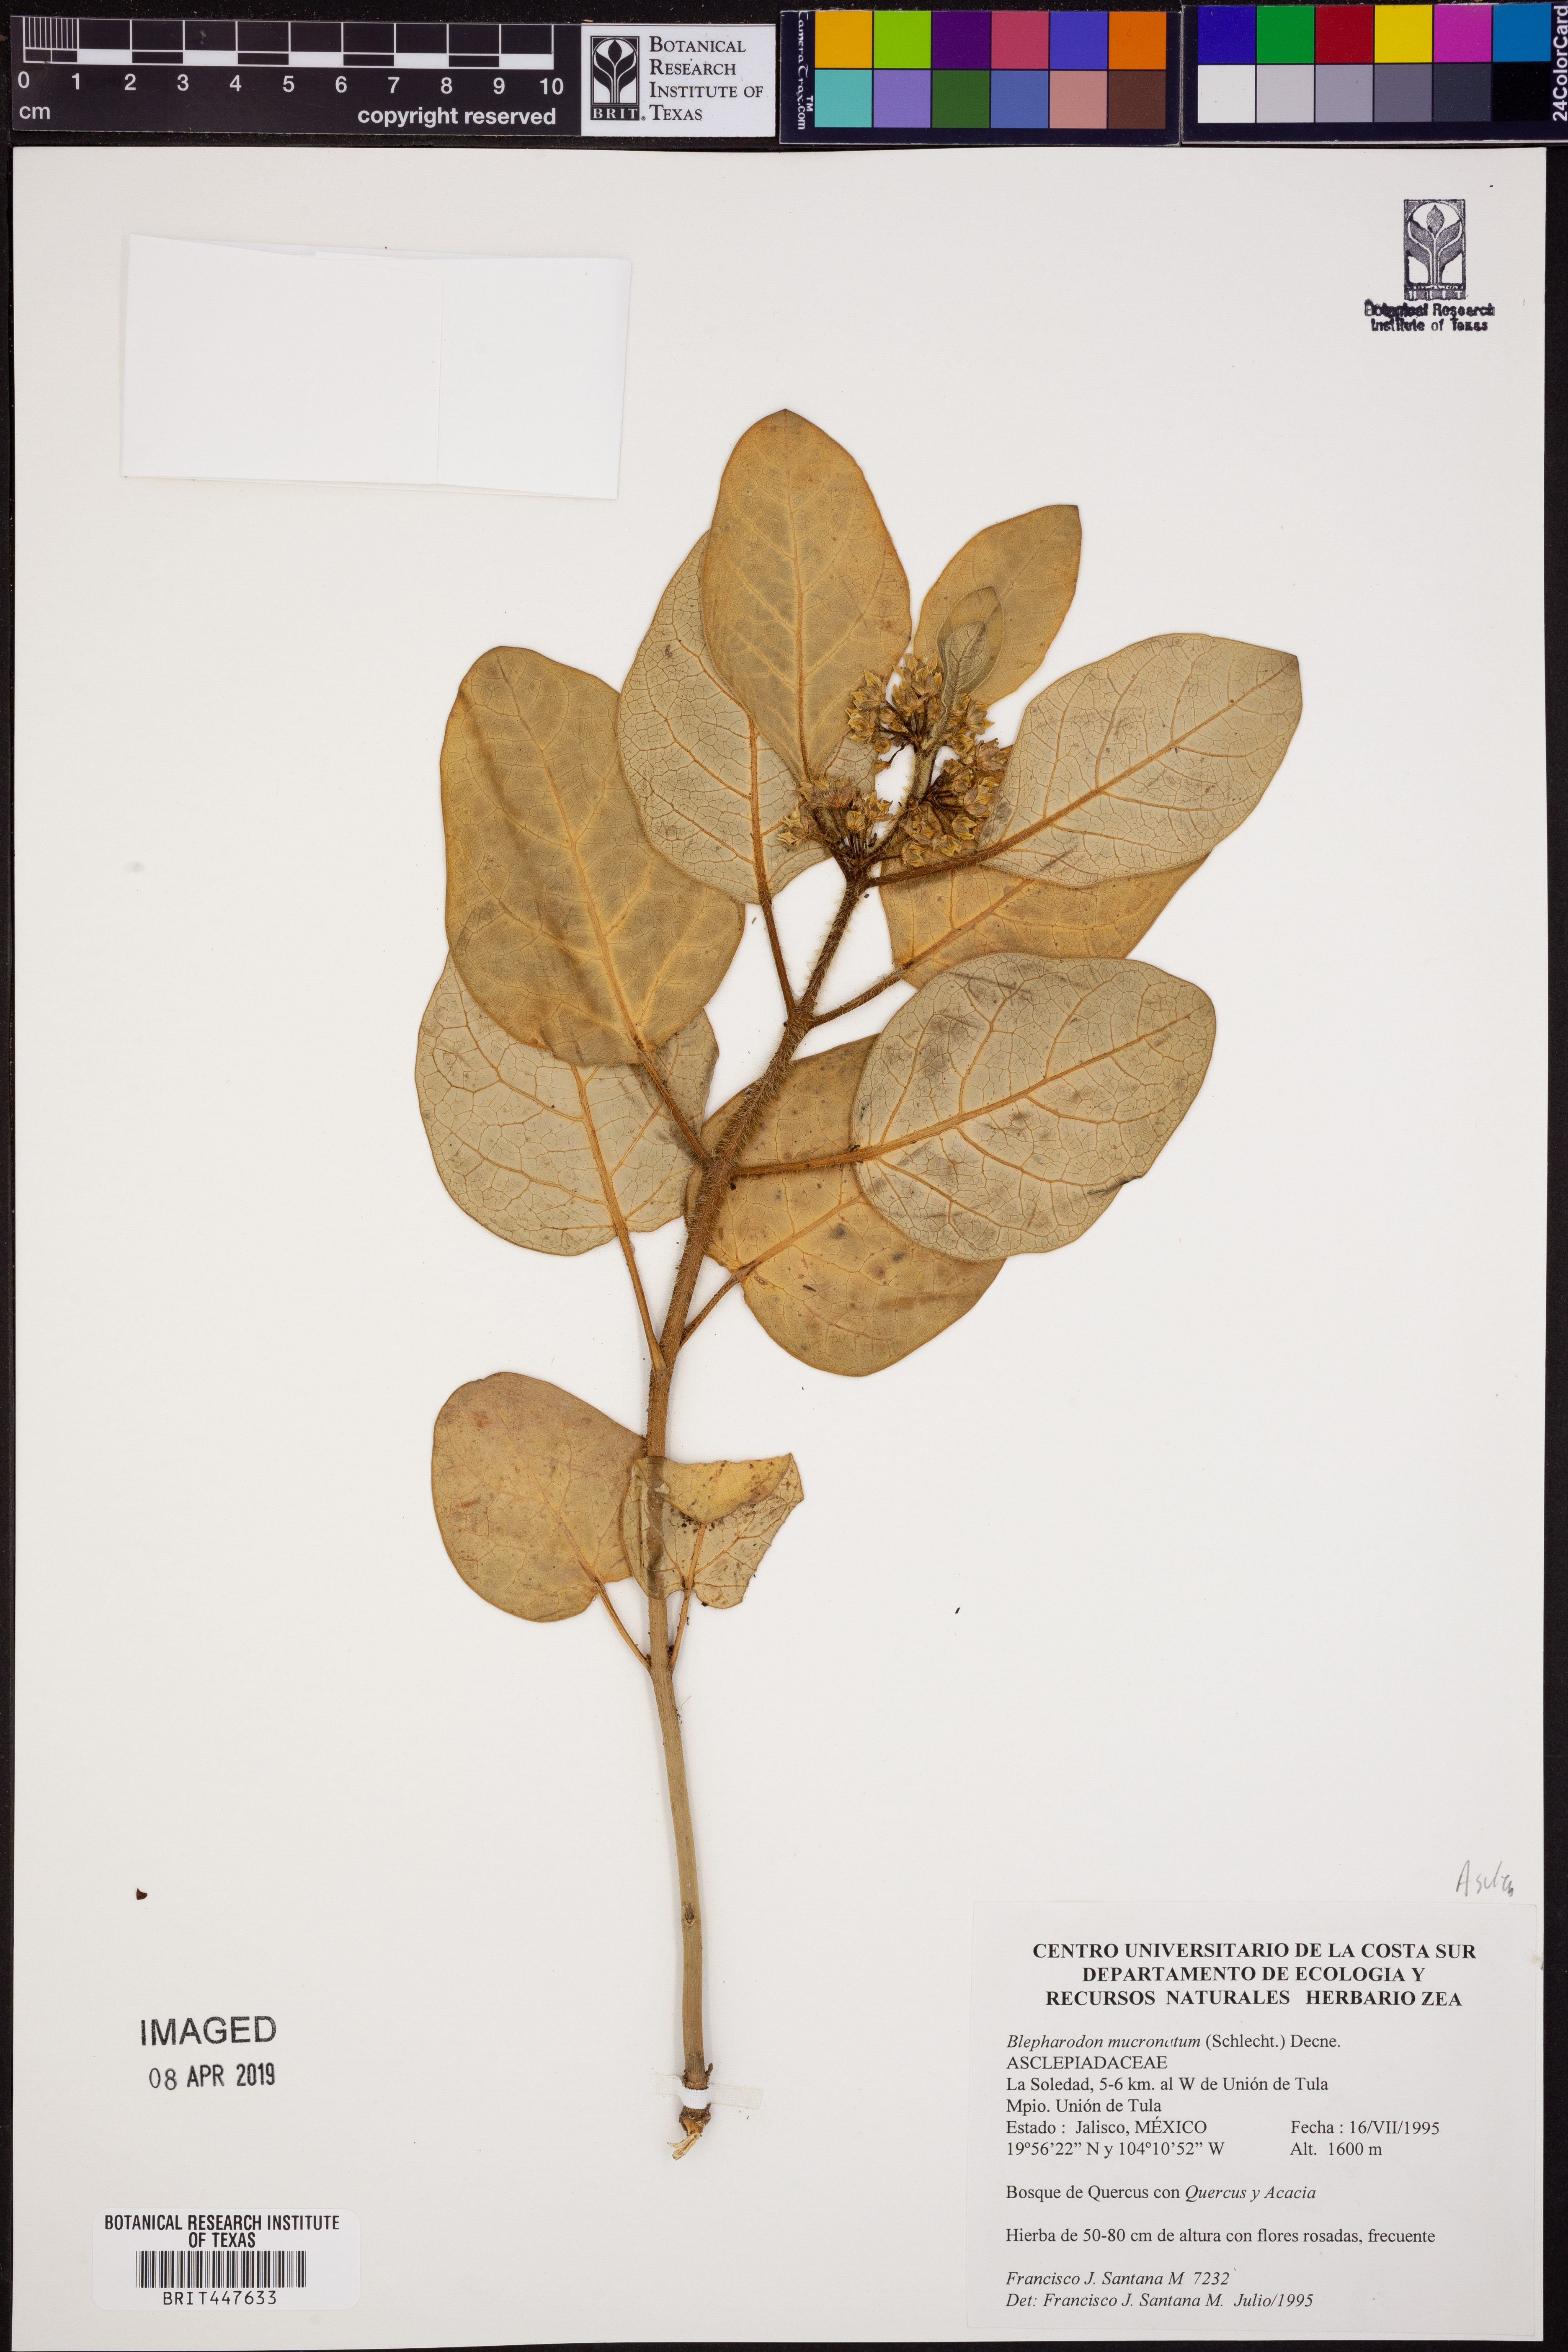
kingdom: Plantae
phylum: Tracheophyta
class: Magnoliopsida
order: Gentianales
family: Apocynaceae
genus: Vailia
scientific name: Vailia anomala
